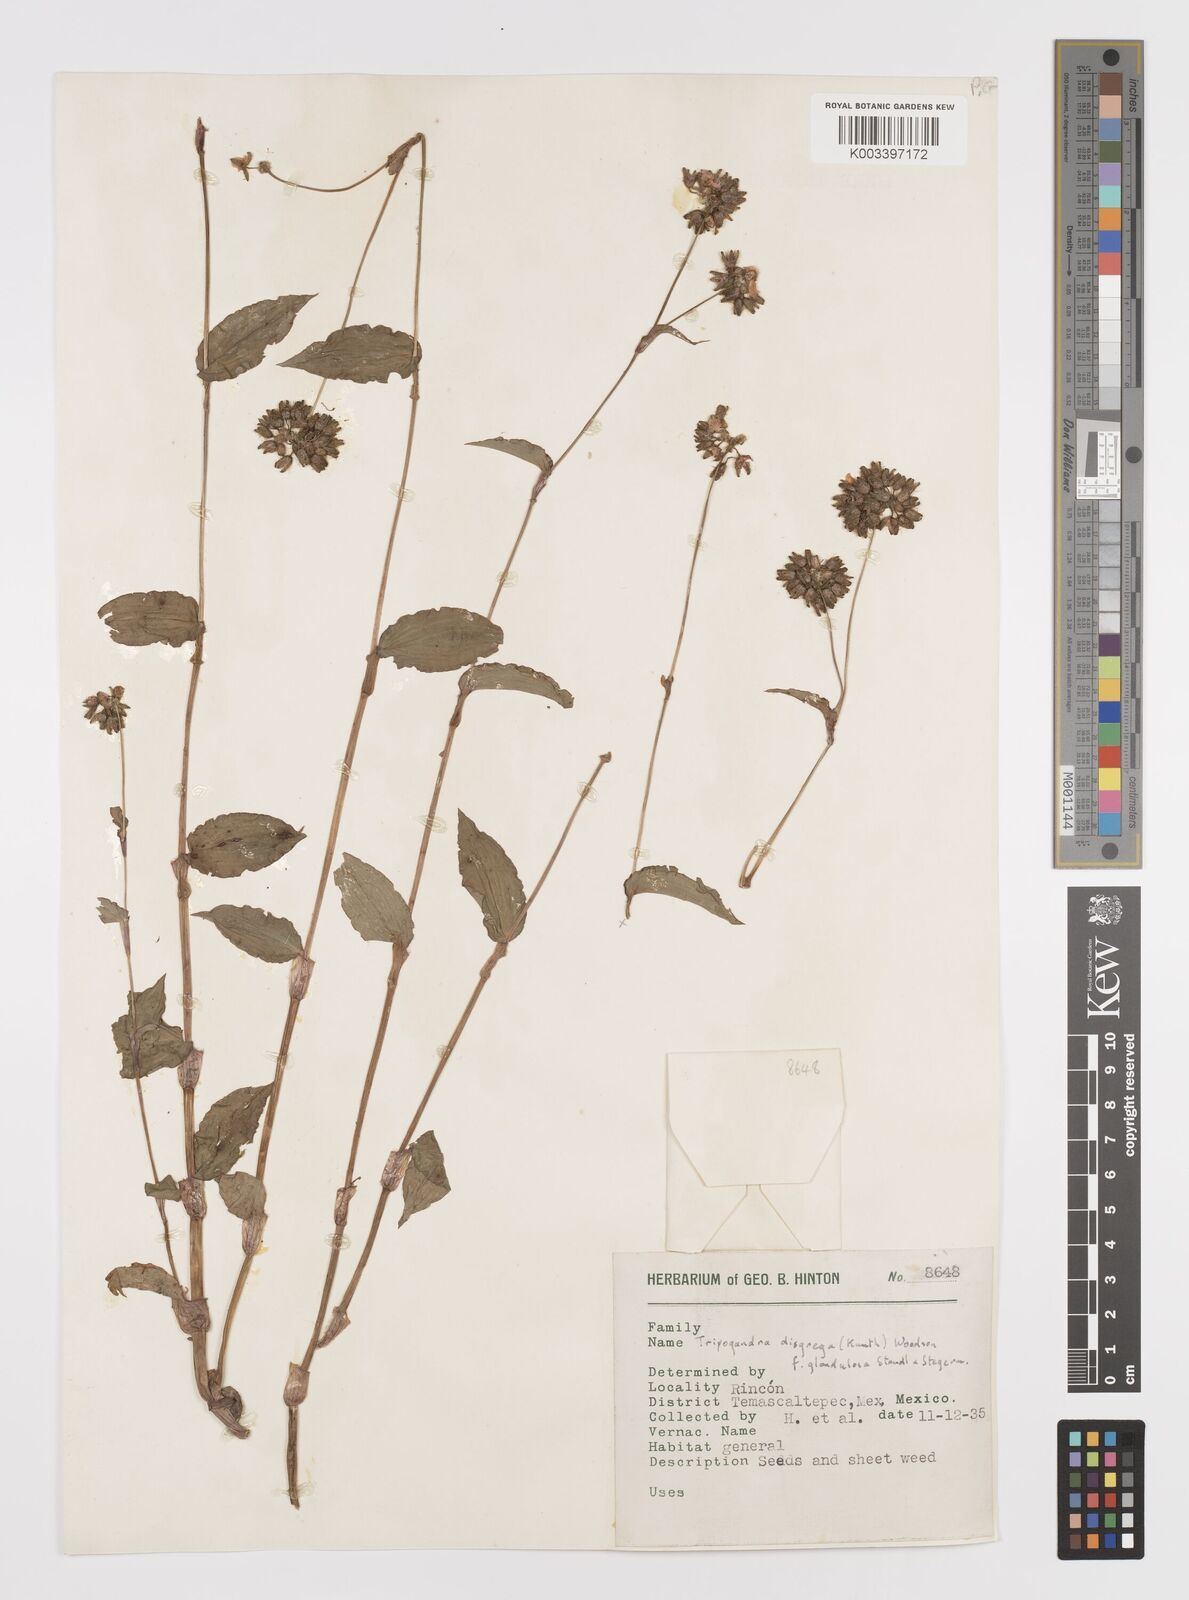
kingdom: Plantae
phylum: Tracheophyta
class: Liliopsida
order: Commelinales
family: Commelinaceae
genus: Callisia
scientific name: Callisia disgrega
